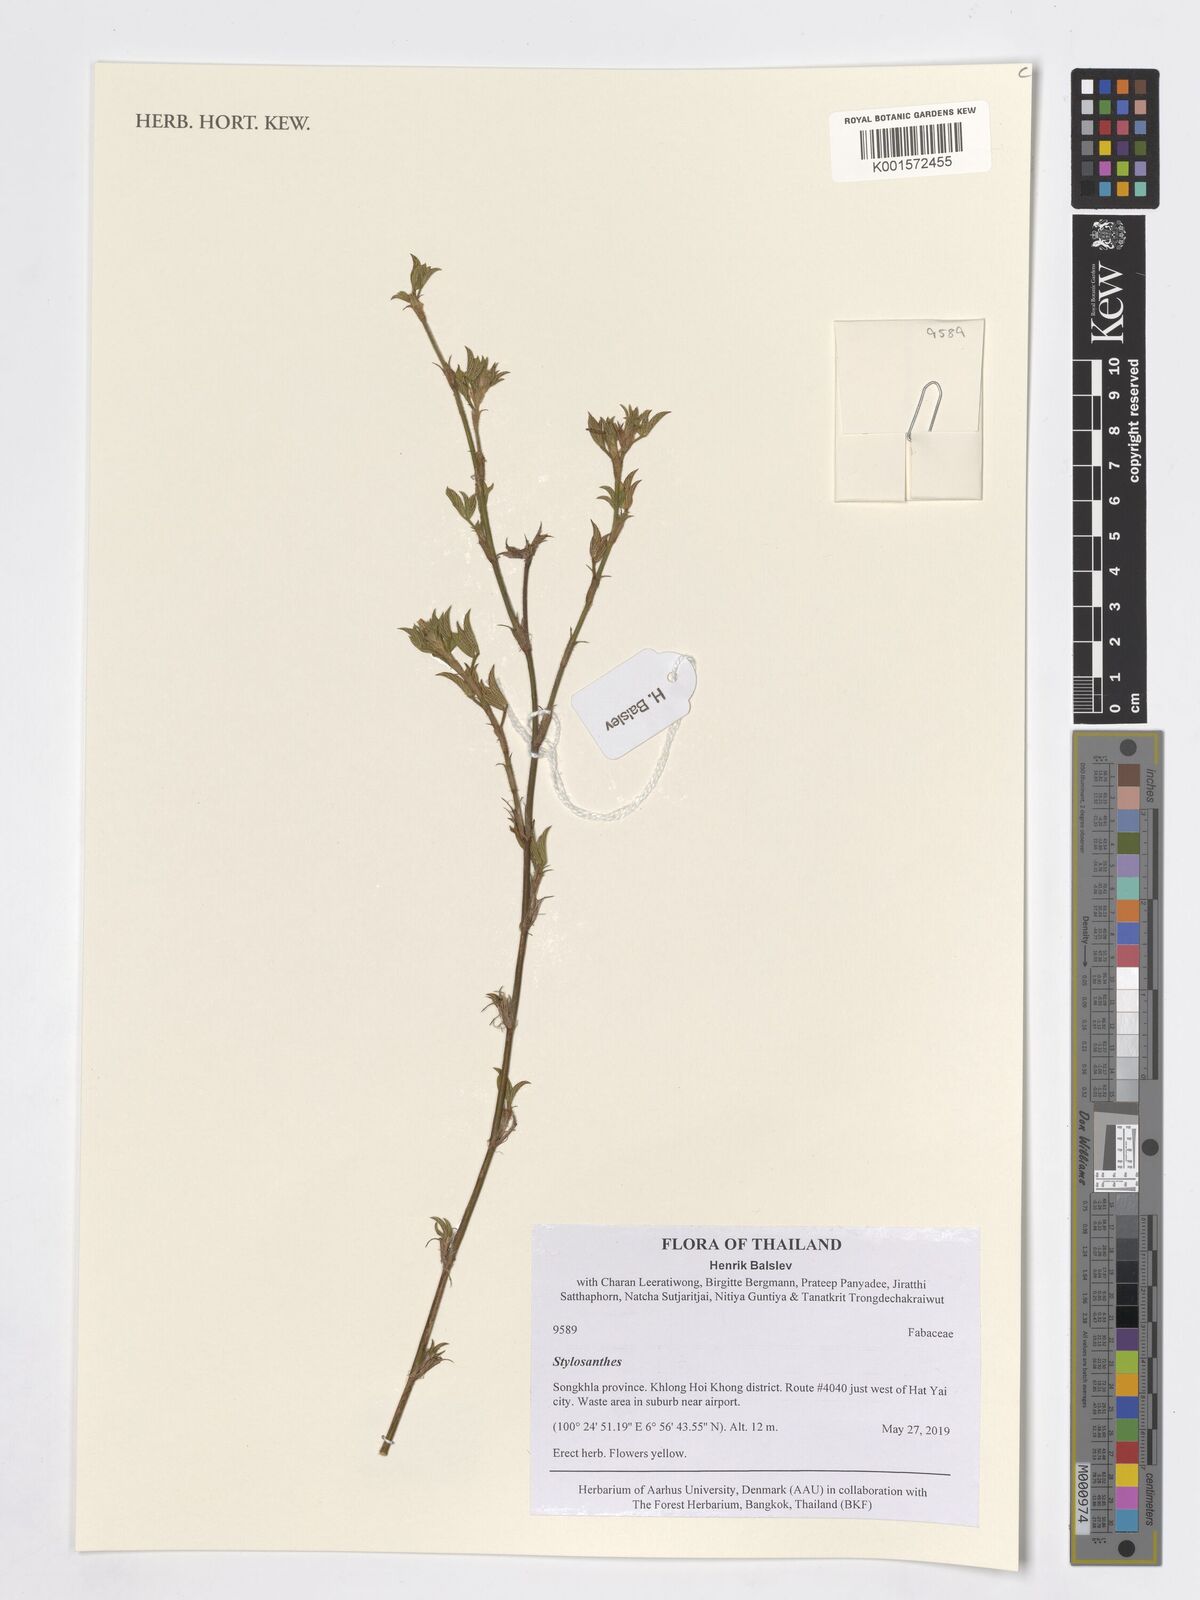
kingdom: Plantae
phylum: Tracheophyta
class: Magnoliopsida
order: Fabales
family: Fabaceae
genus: Stylosanthes
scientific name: Stylosanthes
